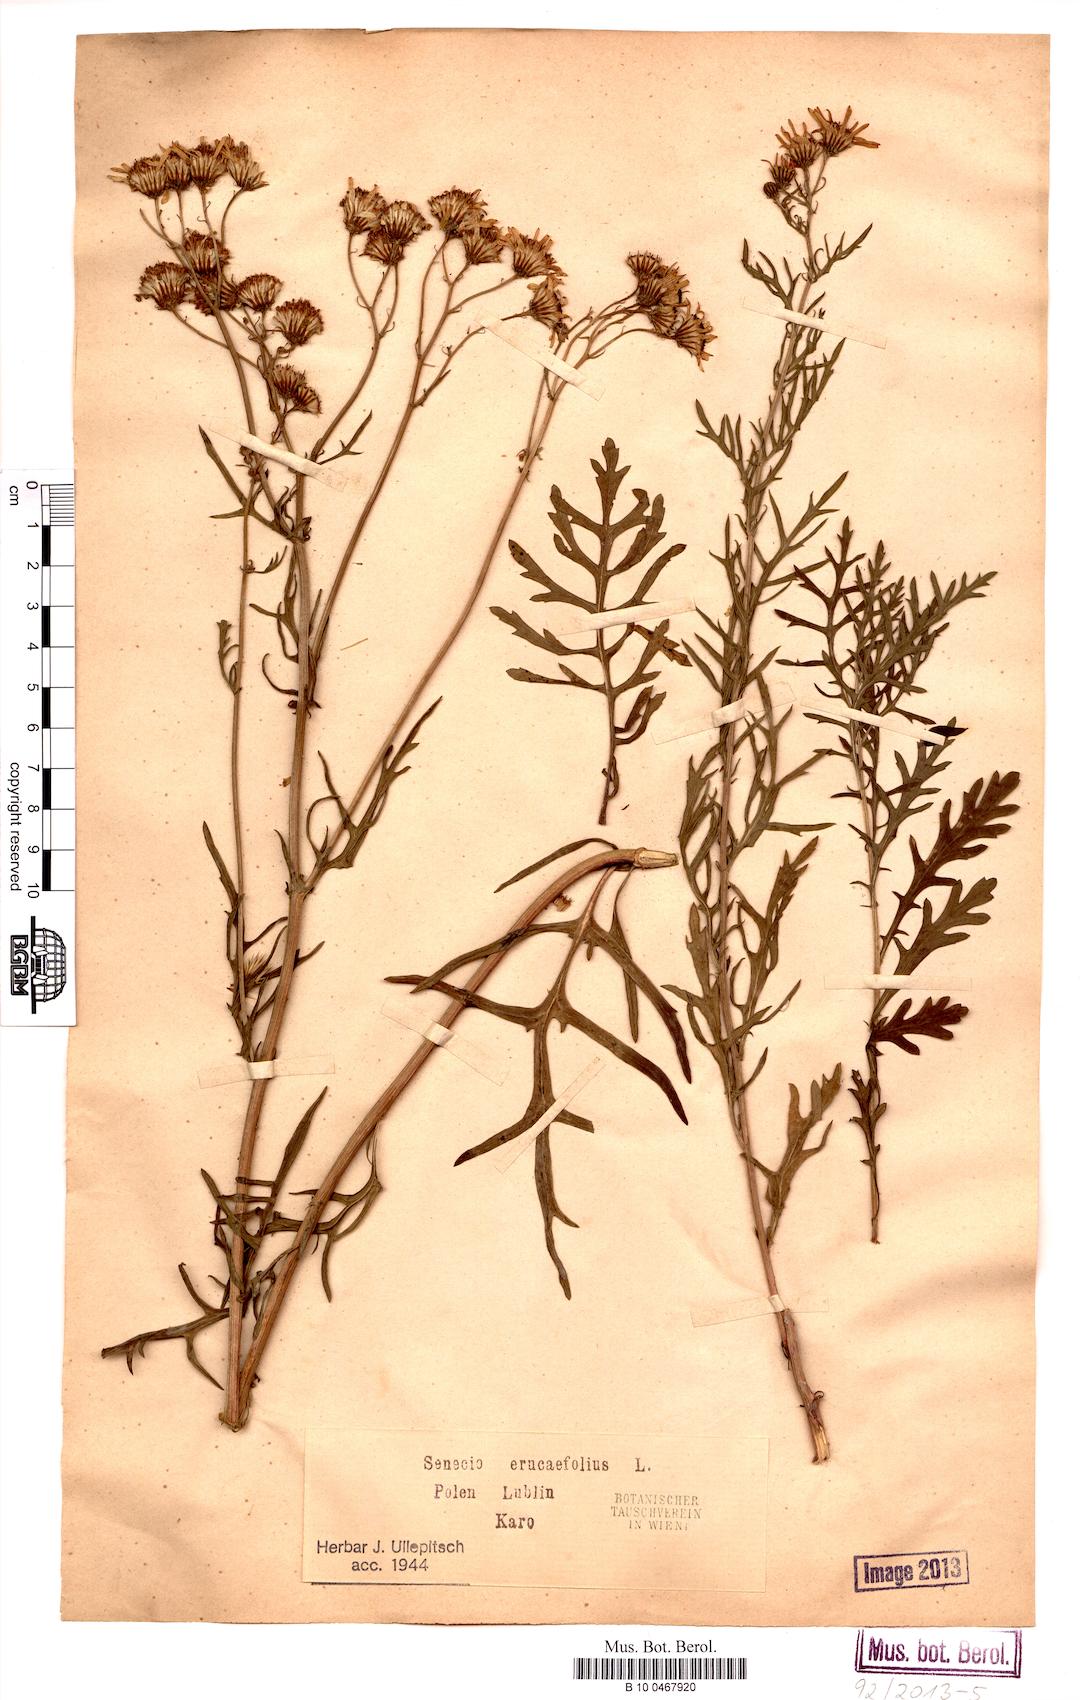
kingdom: Plantae
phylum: Tracheophyta
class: Magnoliopsida
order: Asterales
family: Asteraceae
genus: Jacobaea
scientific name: Jacobaea erucifolia
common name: Hoary ragwort
